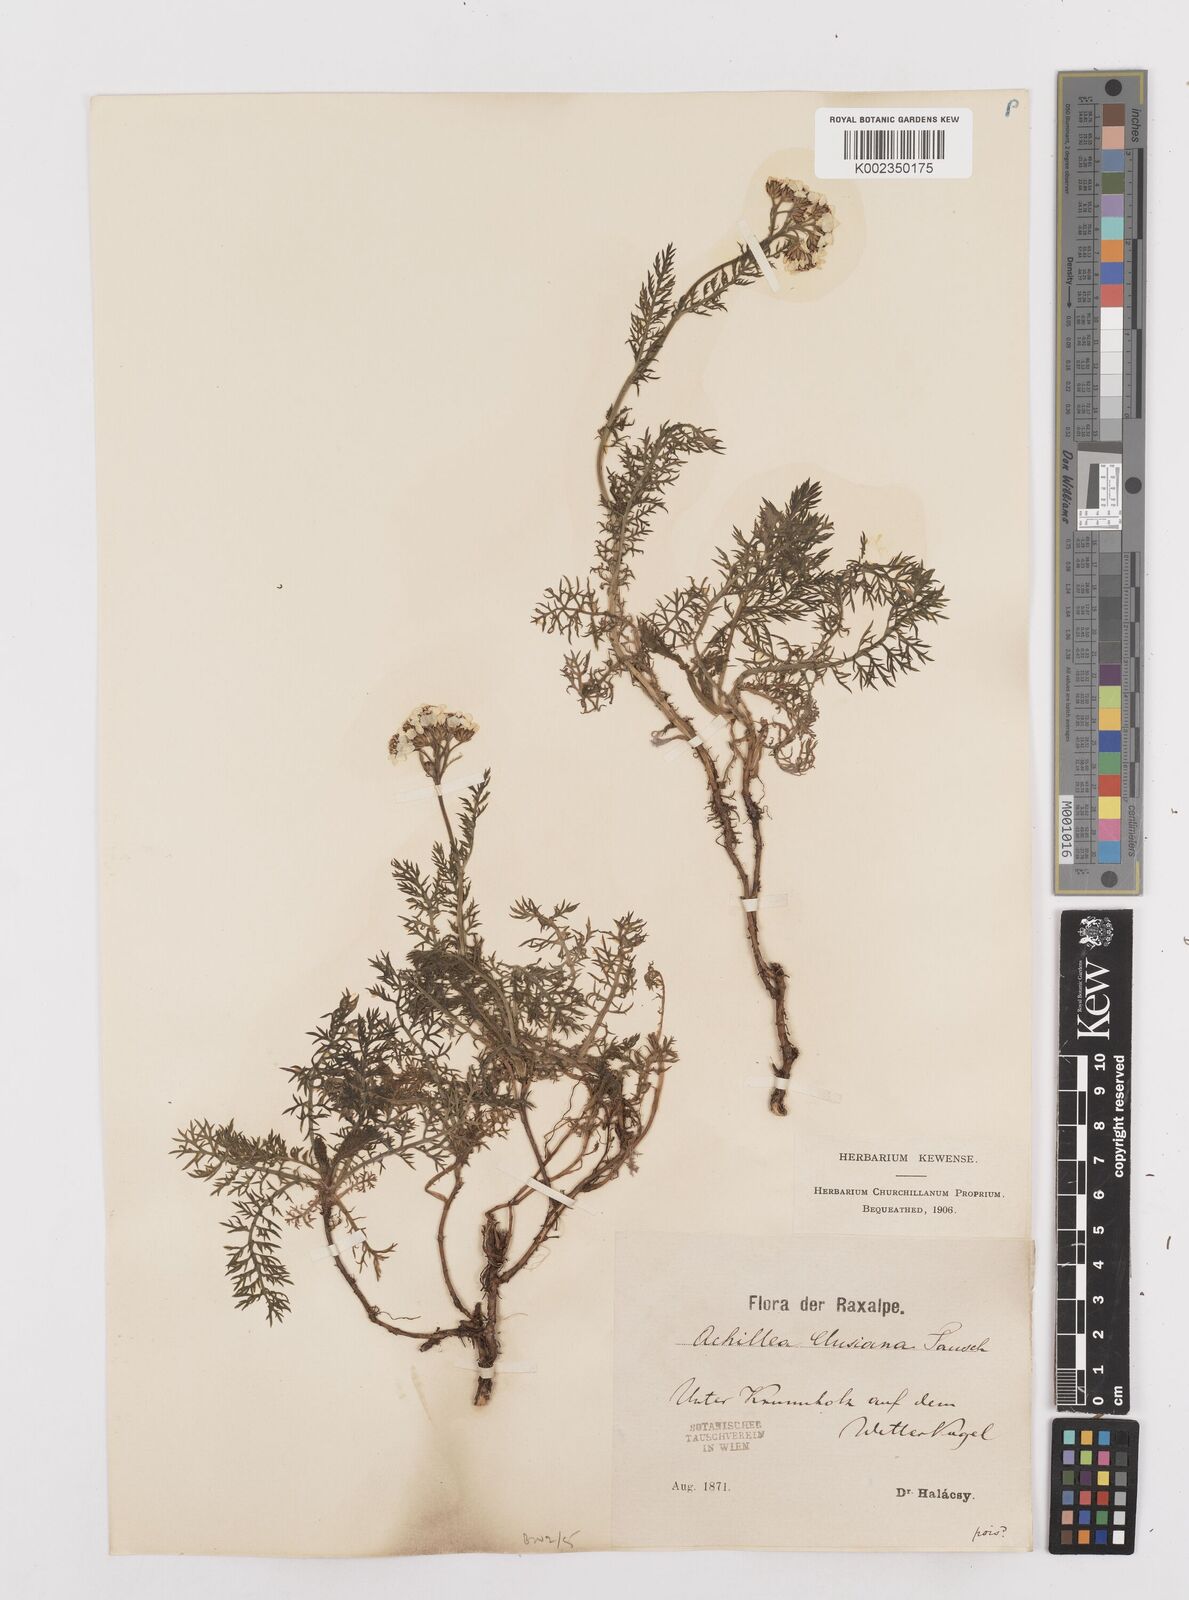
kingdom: Plantae
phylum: Tracheophyta
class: Magnoliopsida
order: Asterales
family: Asteraceae
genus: Achillea
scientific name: Achillea clusiana
